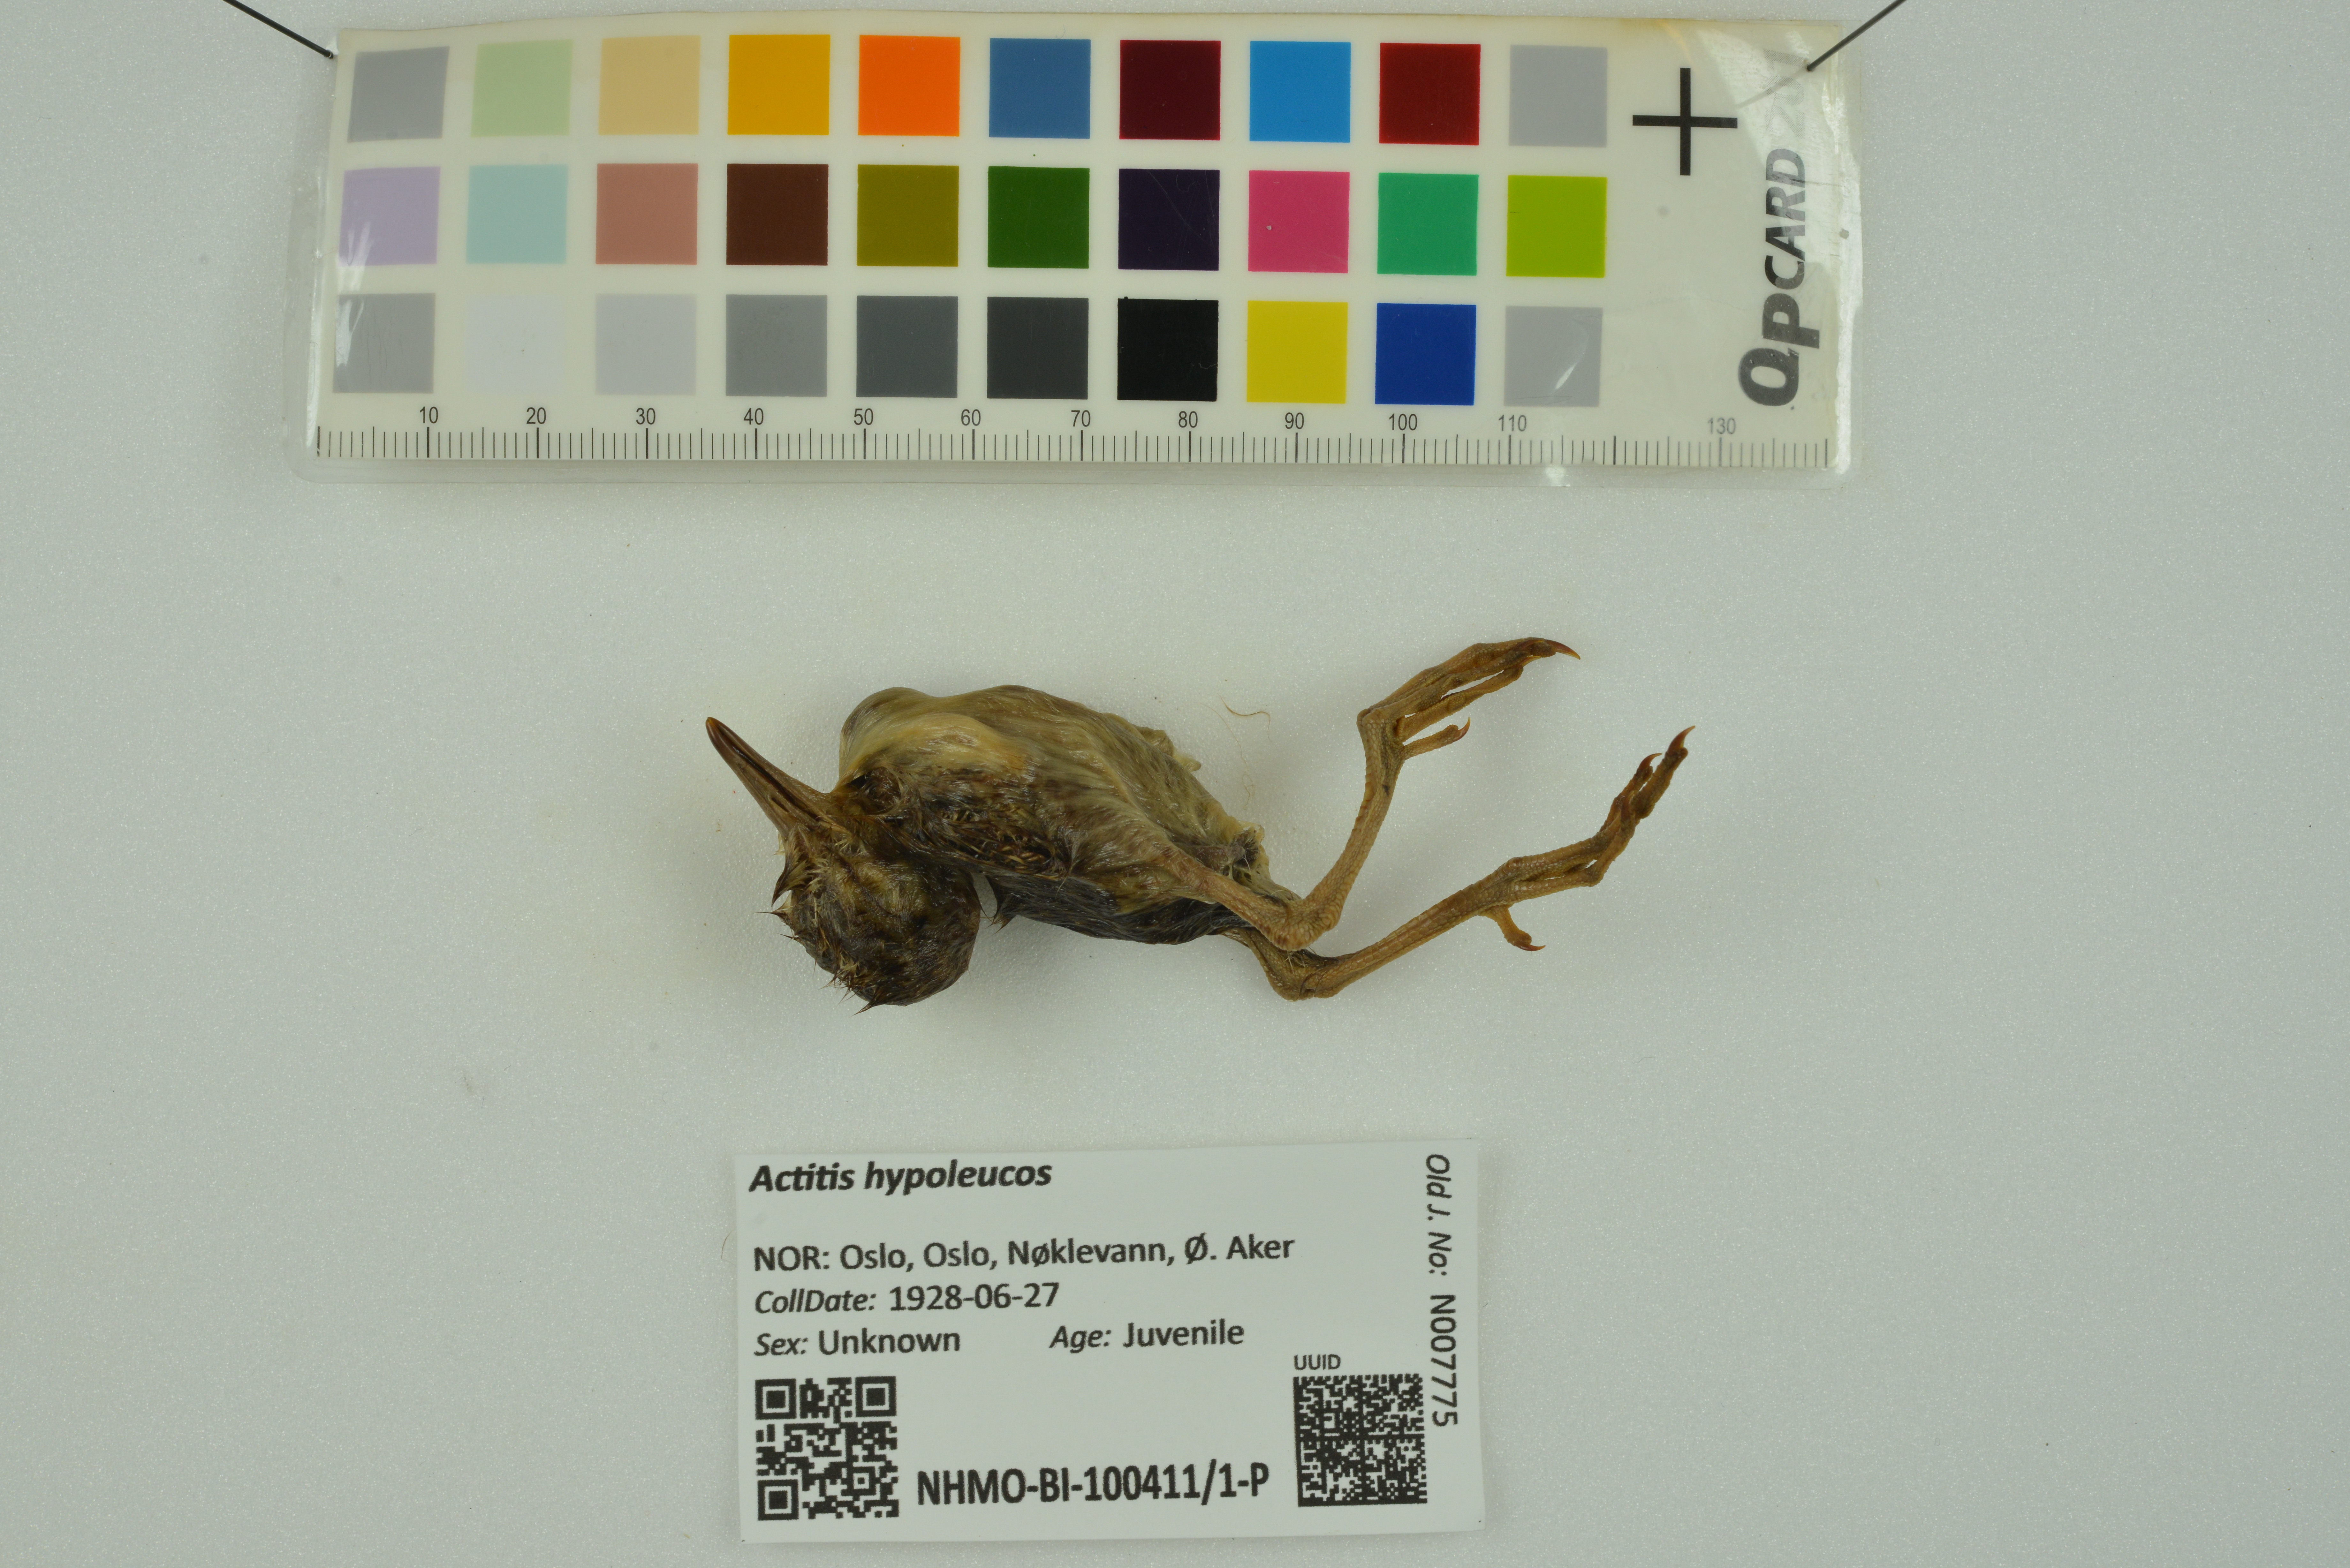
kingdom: Animalia
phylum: Chordata
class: Aves
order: Charadriiformes
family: Scolopacidae
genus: Actitis
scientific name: Actitis hypoleucos
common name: Common sandpiper
